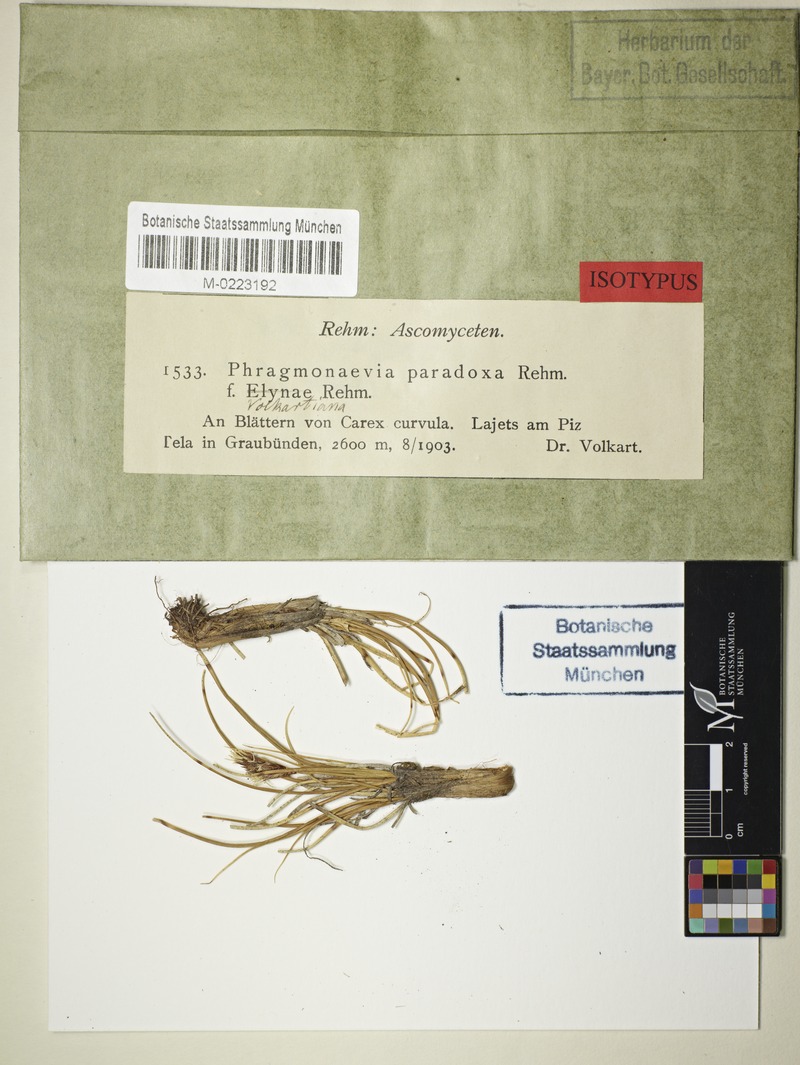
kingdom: Fungi
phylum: Ascomycota
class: Leotiomycetes
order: Helotiales
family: Calloriaceae
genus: Naeviella
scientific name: Naeviella volkartiana
